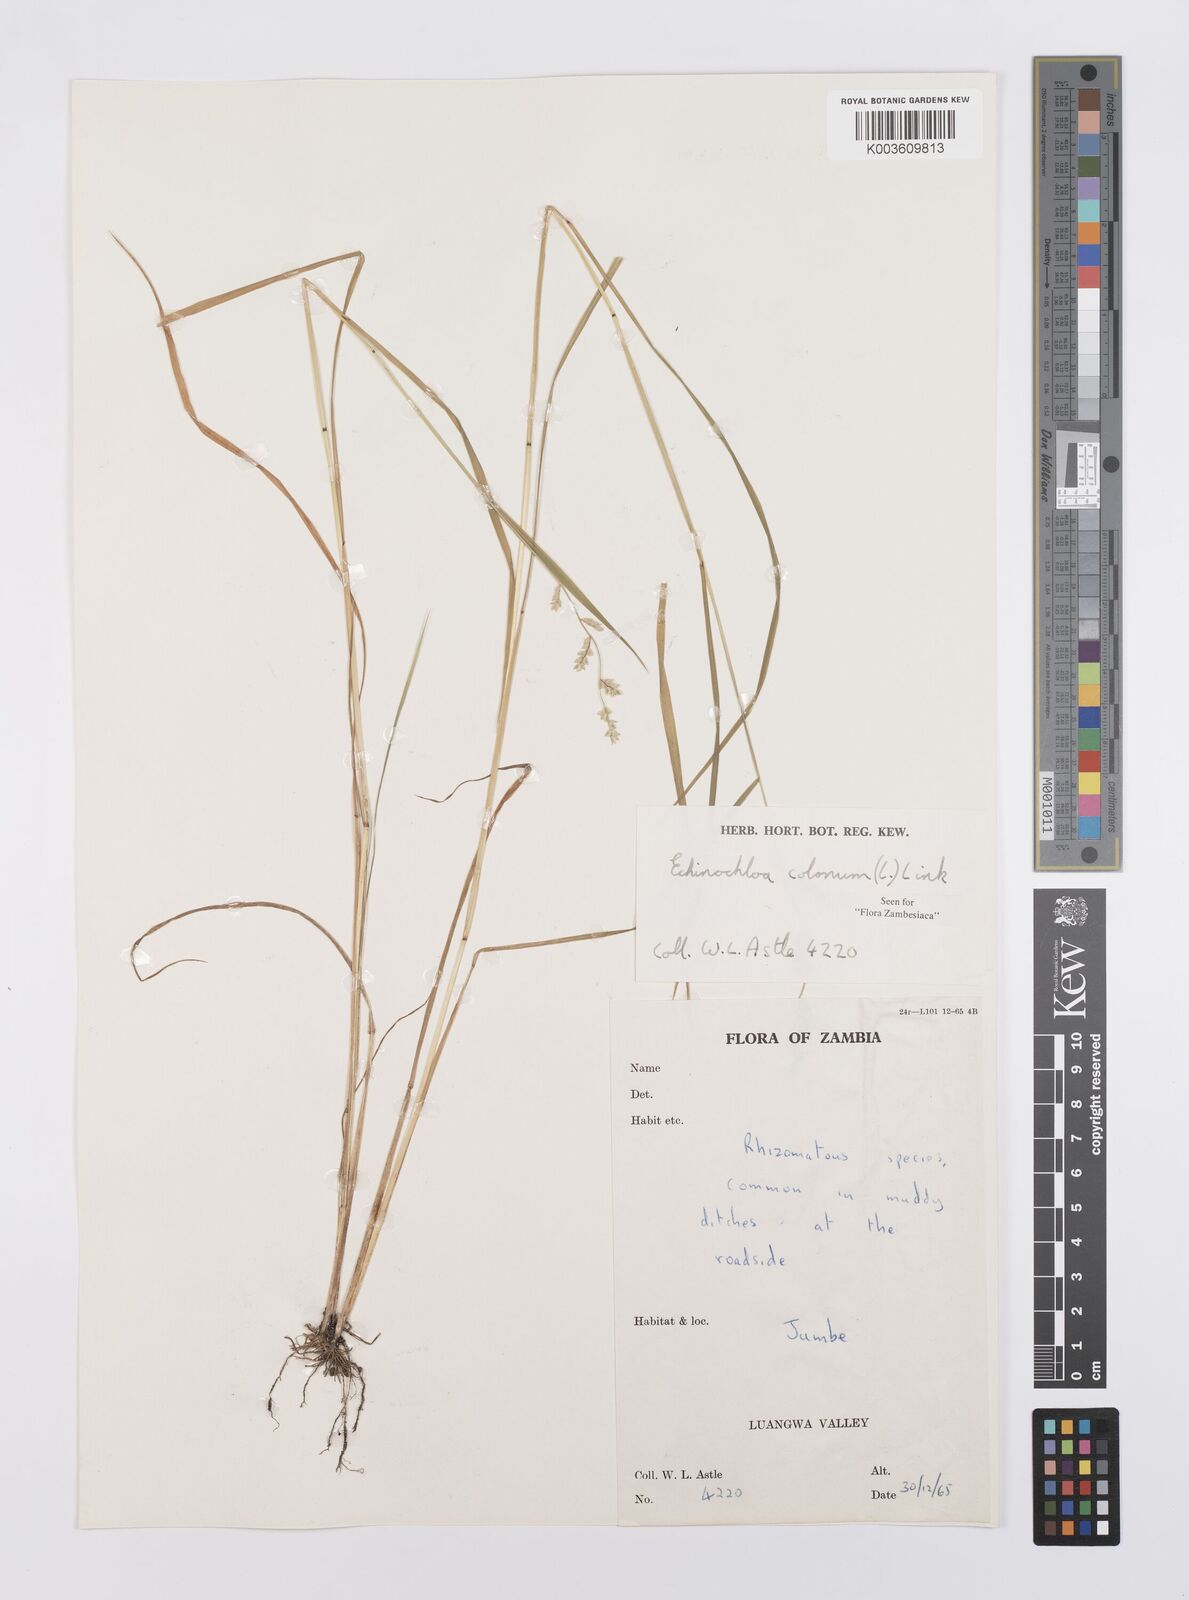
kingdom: Plantae
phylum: Tracheophyta
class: Liliopsida
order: Poales
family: Poaceae
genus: Echinochloa
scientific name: Echinochloa colonum
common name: Jungle rice
